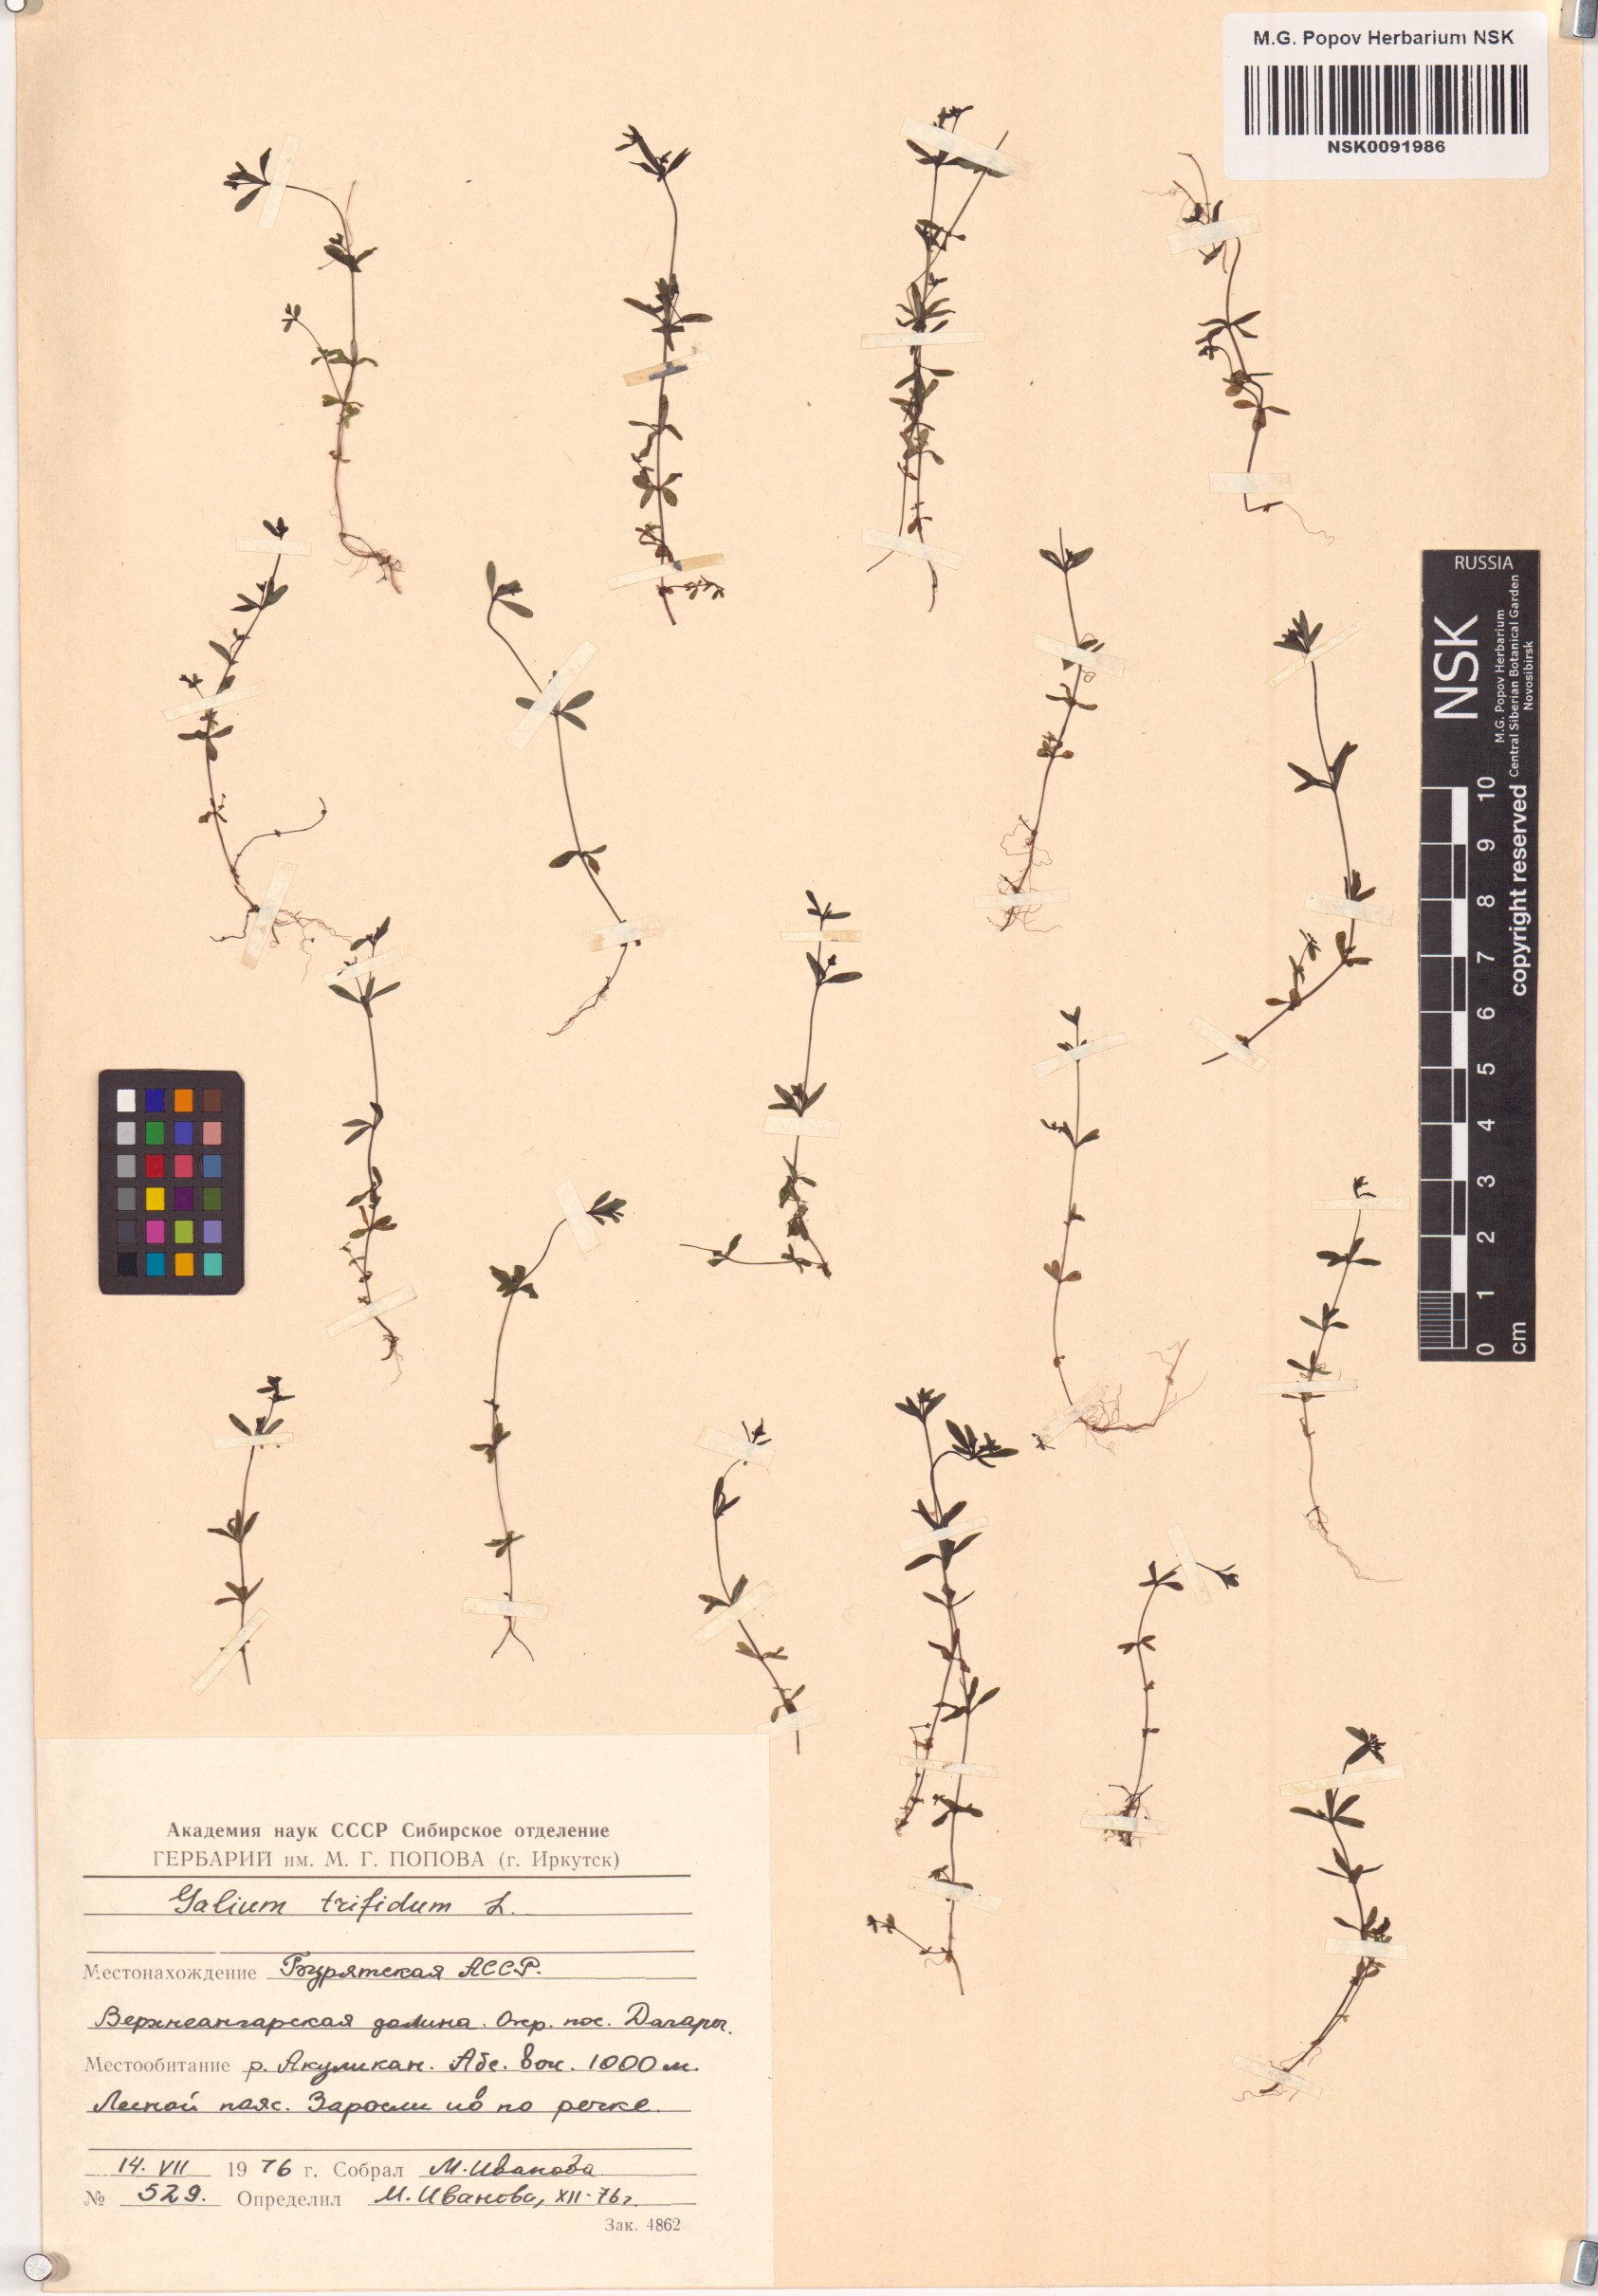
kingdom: Plantae
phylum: Tracheophyta
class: Magnoliopsida
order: Gentianales
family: Rubiaceae
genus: Galium
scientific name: Galium trifidum
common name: Small bedstraw
